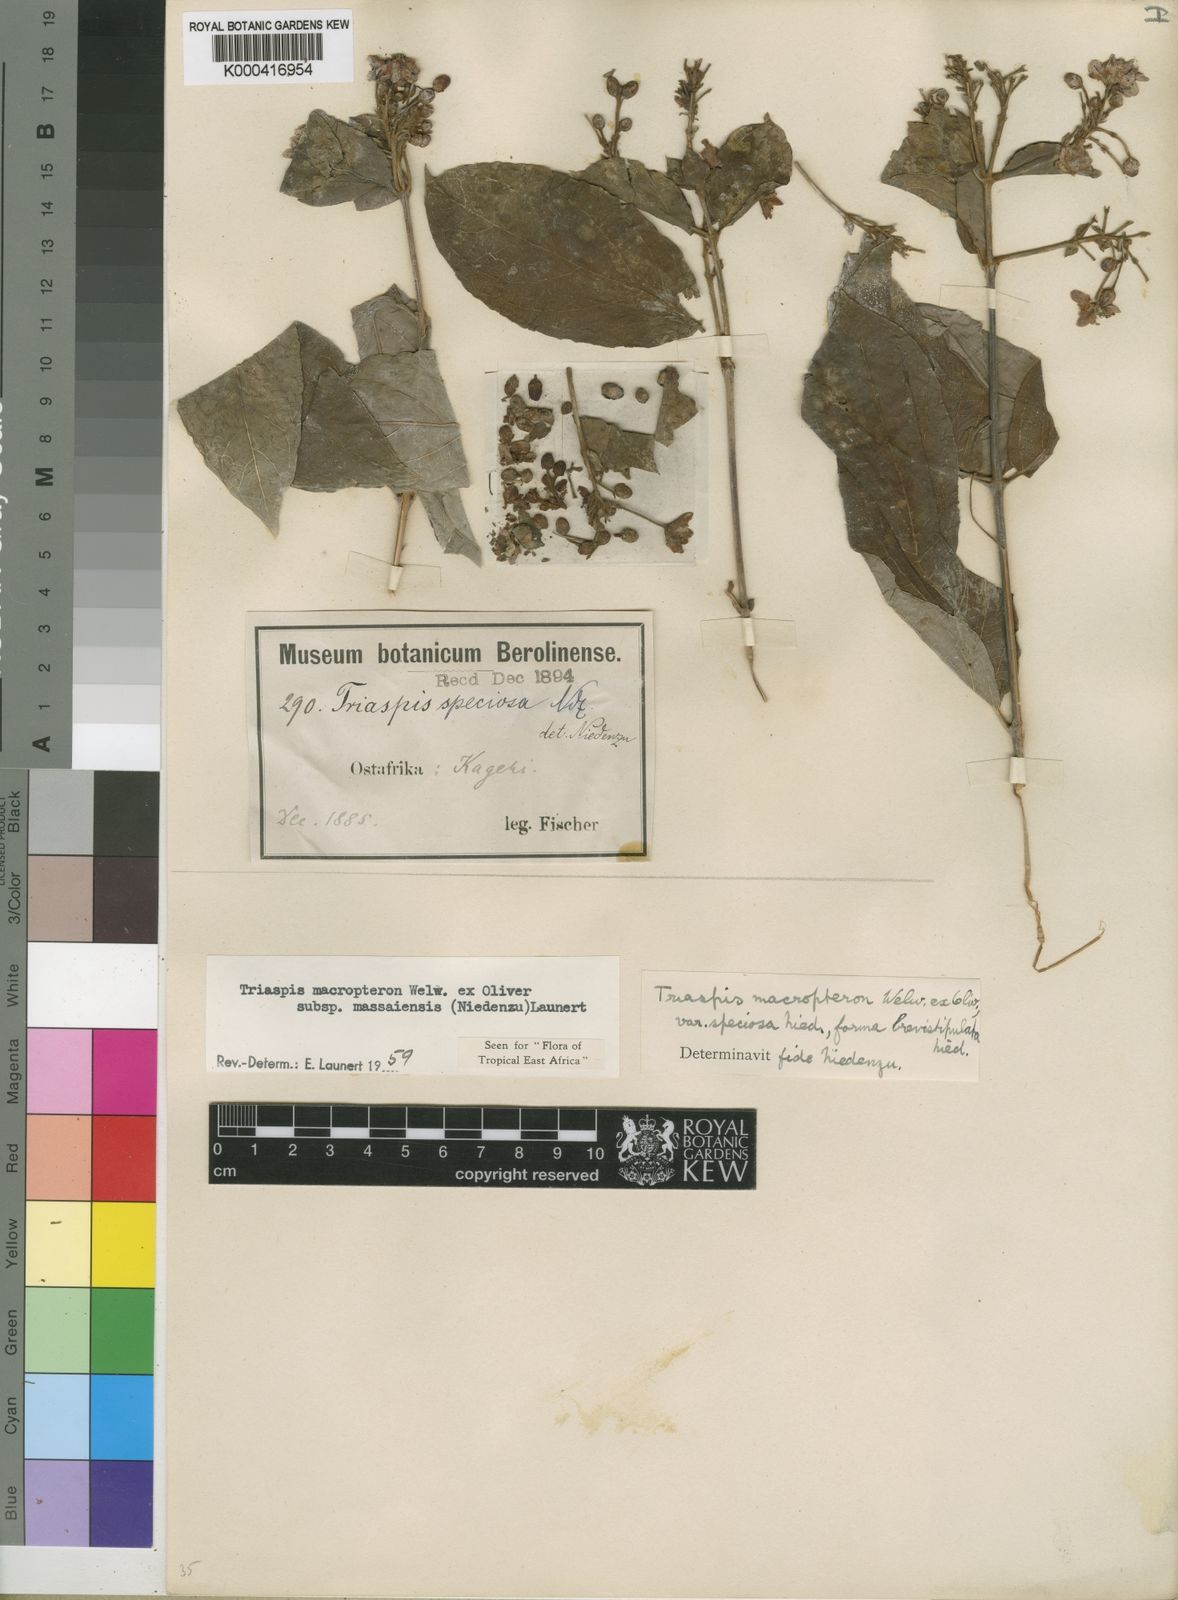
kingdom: Plantae
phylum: Tracheophyta
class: Magnoliopsida
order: Malpighiales
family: Malpighiaceae
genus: Triaspis
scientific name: Triaspis macropteron
